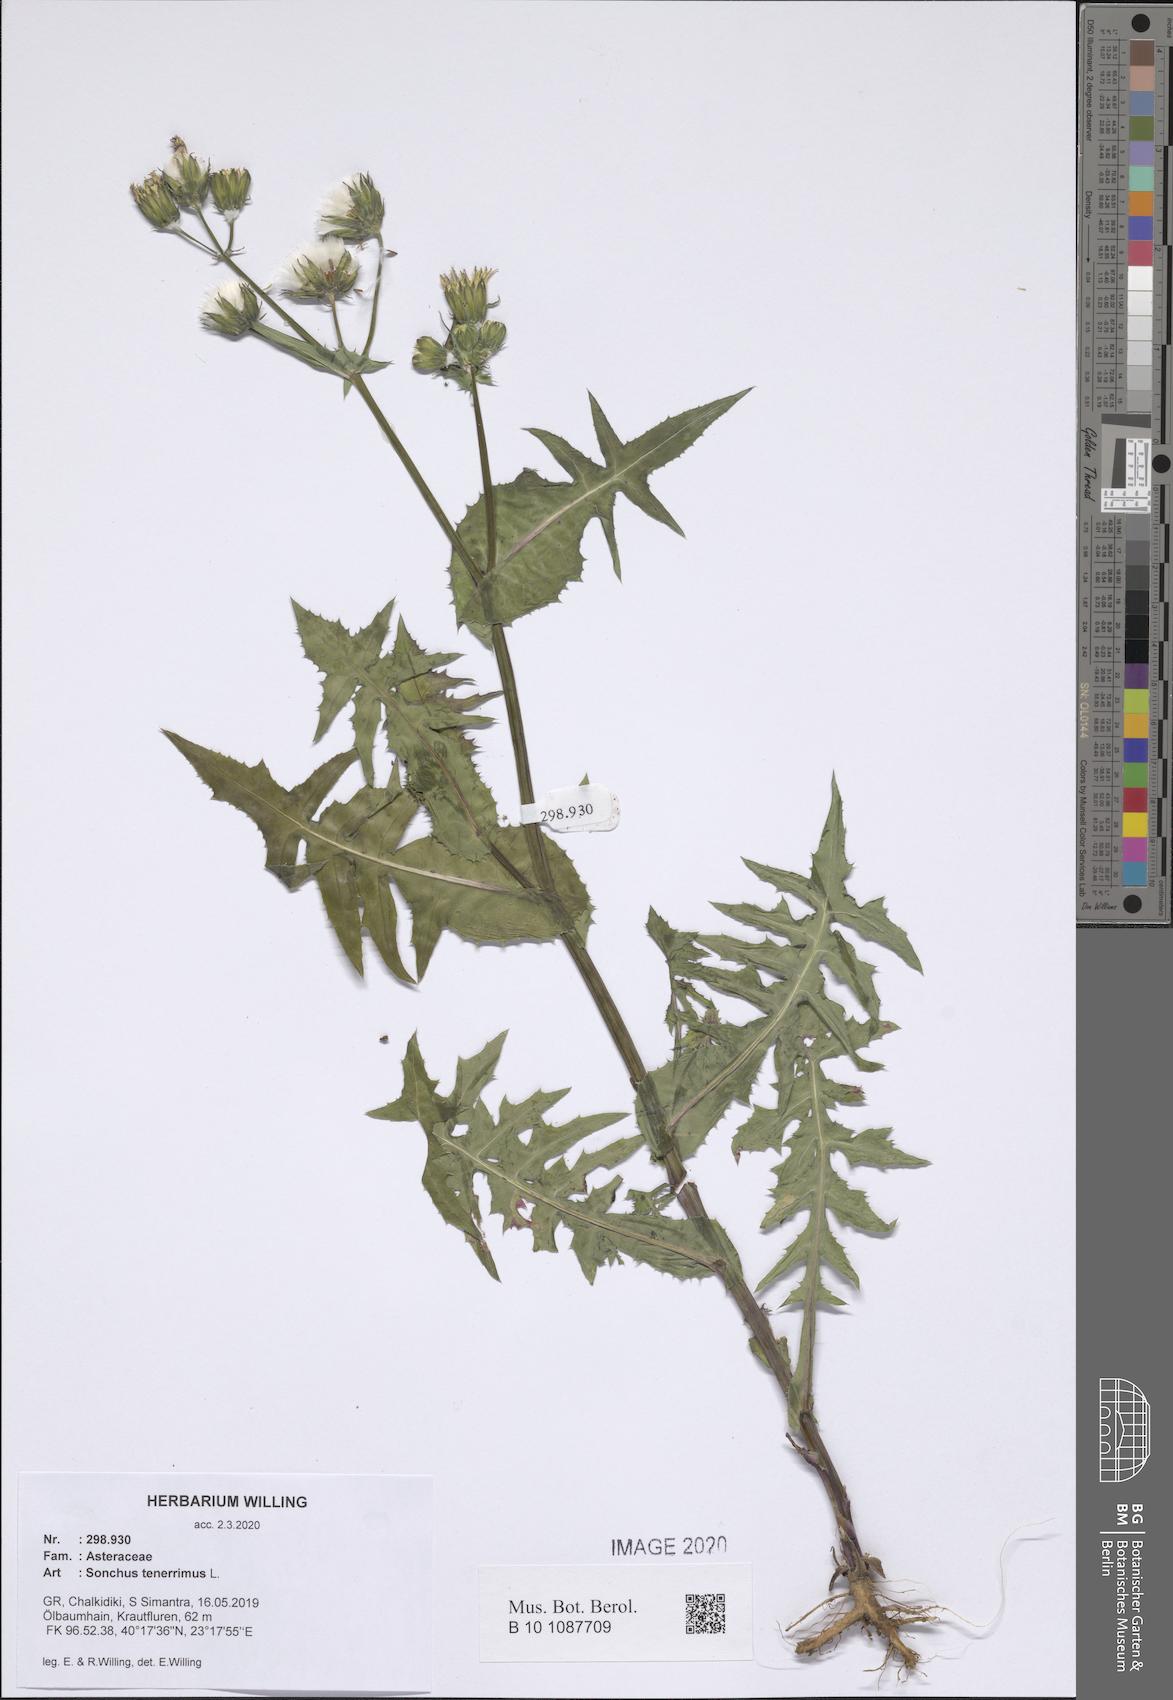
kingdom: Plantae
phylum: Tracheophyta
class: Magnoliopsida
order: Asterales
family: Asteraceae
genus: Sonchus
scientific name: Sonchus tenerrimus
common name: Clammy sowthistle
